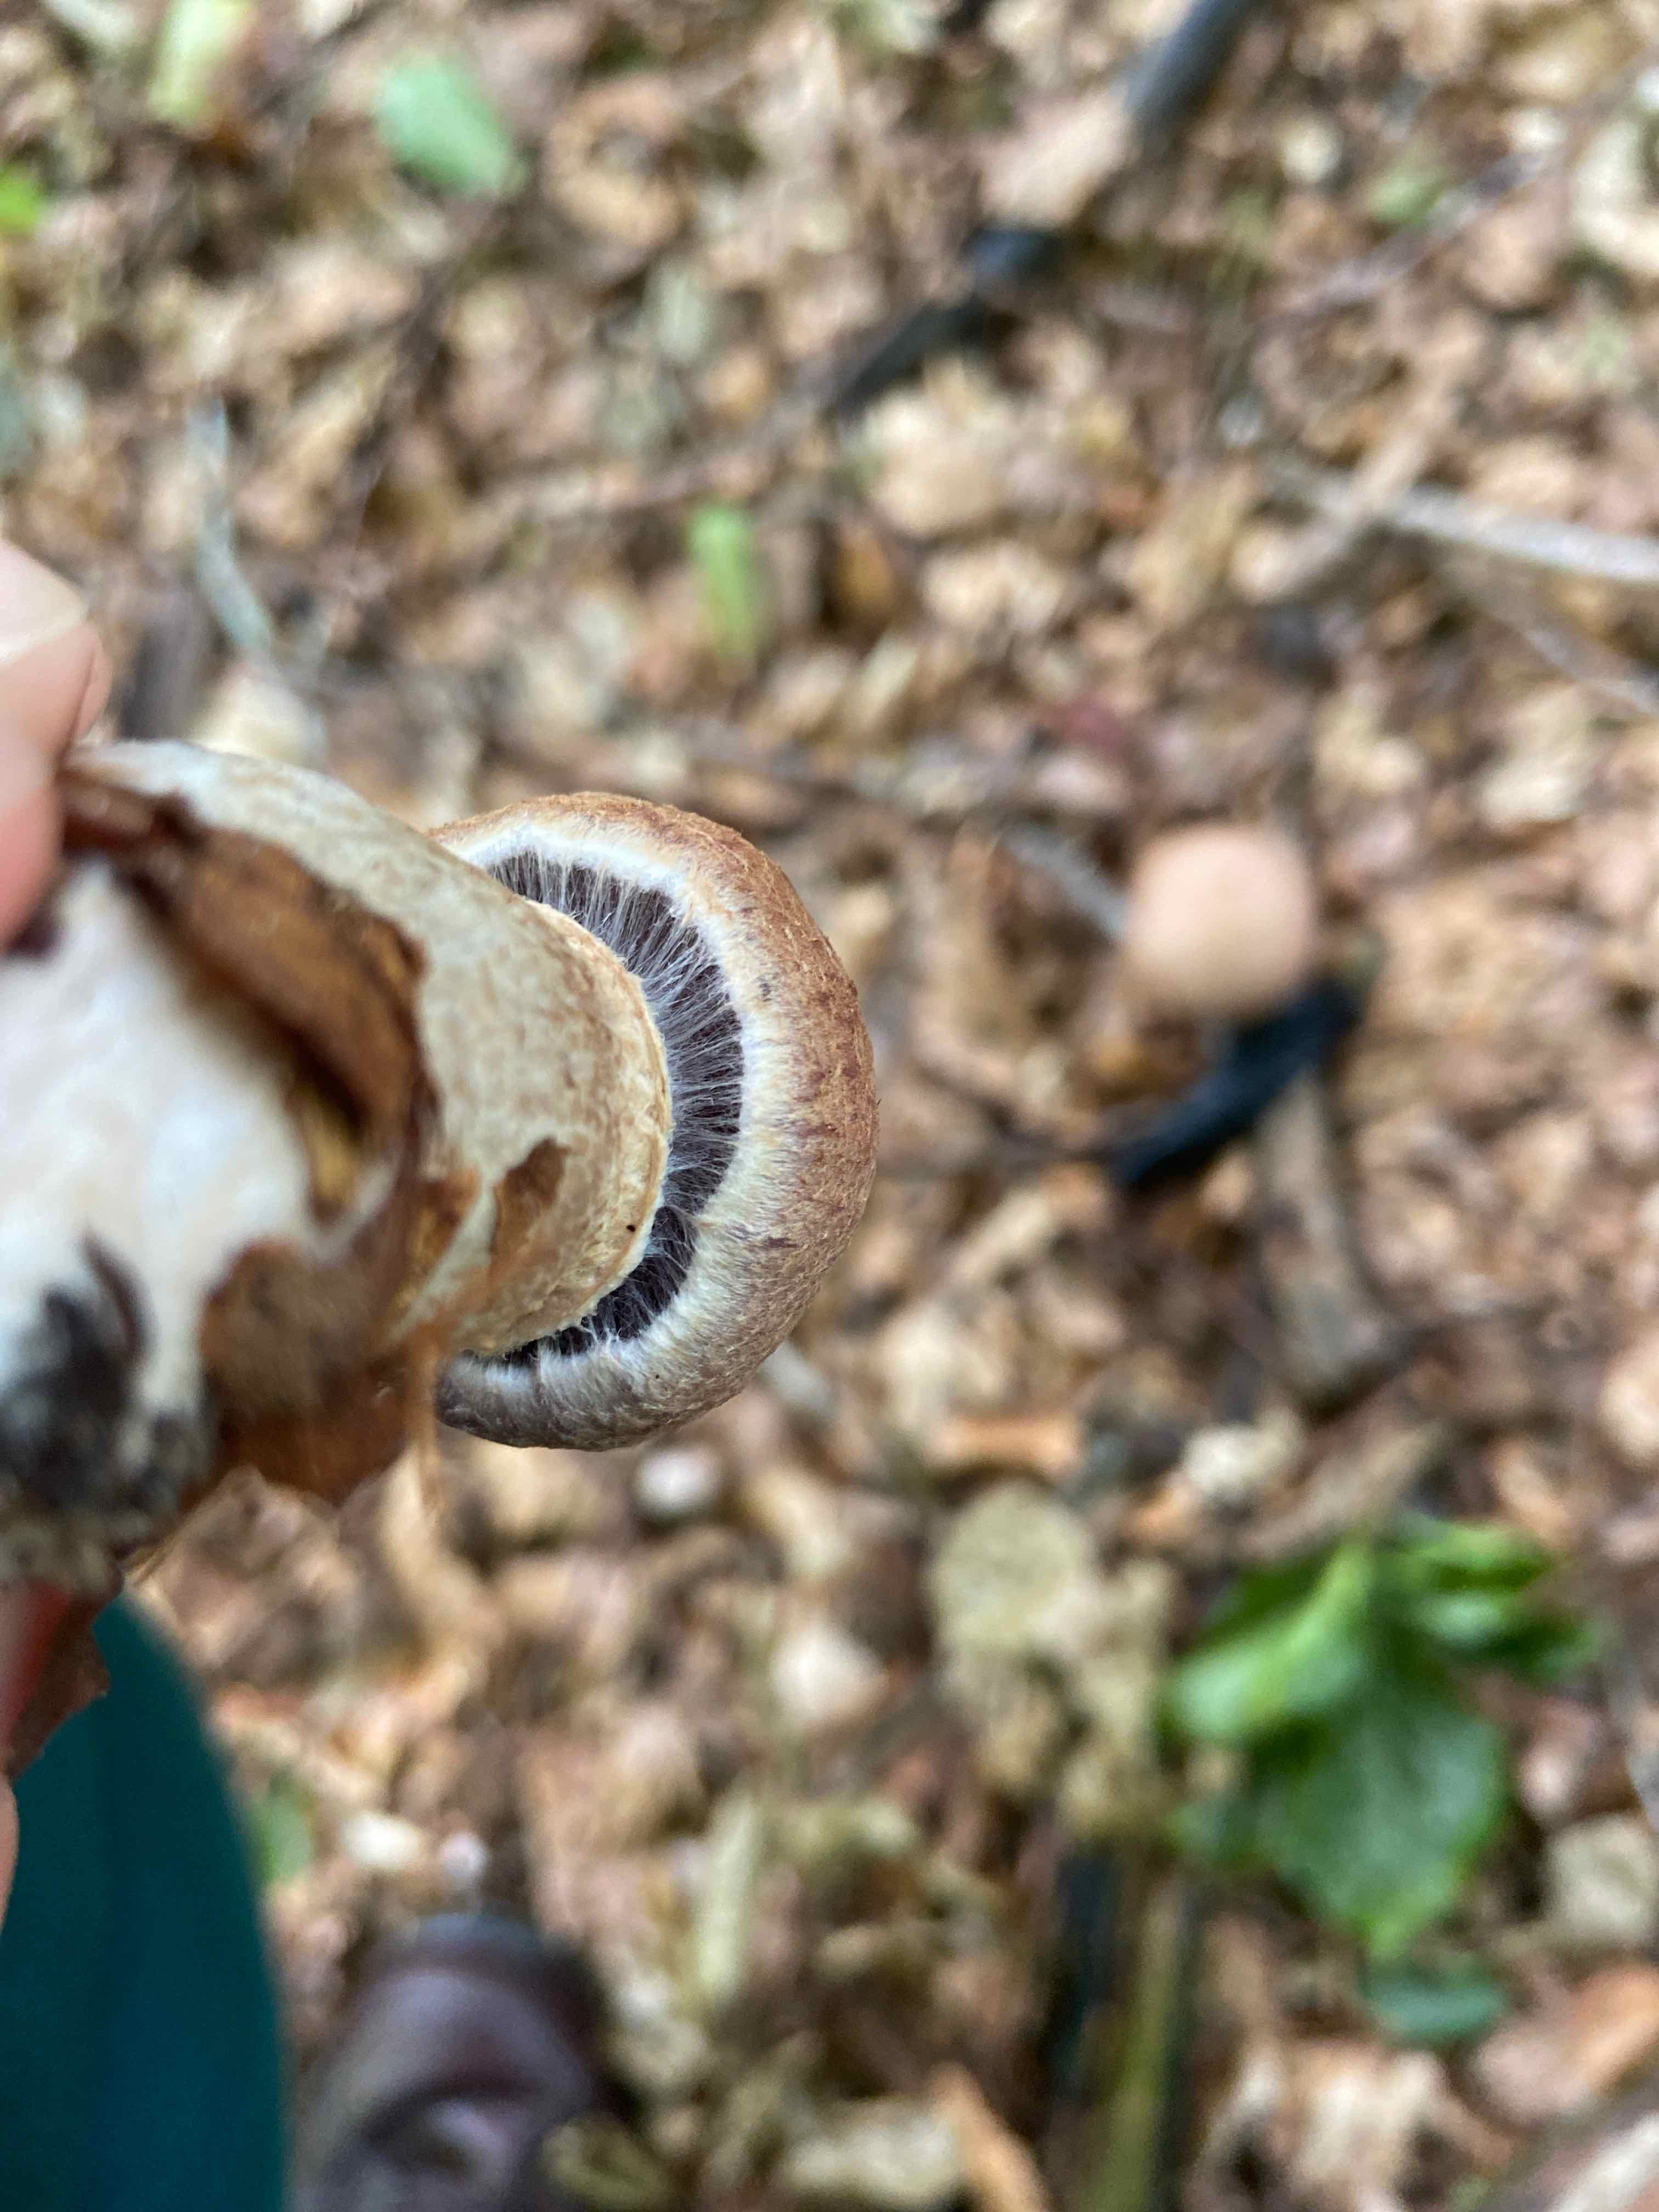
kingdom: Fungi
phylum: Basidiomycota
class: Agaricomycetes
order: Agaricales
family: Cortinariaceae
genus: Cortinarius
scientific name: Cortinarius torvus
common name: champignonagtig slørhat
